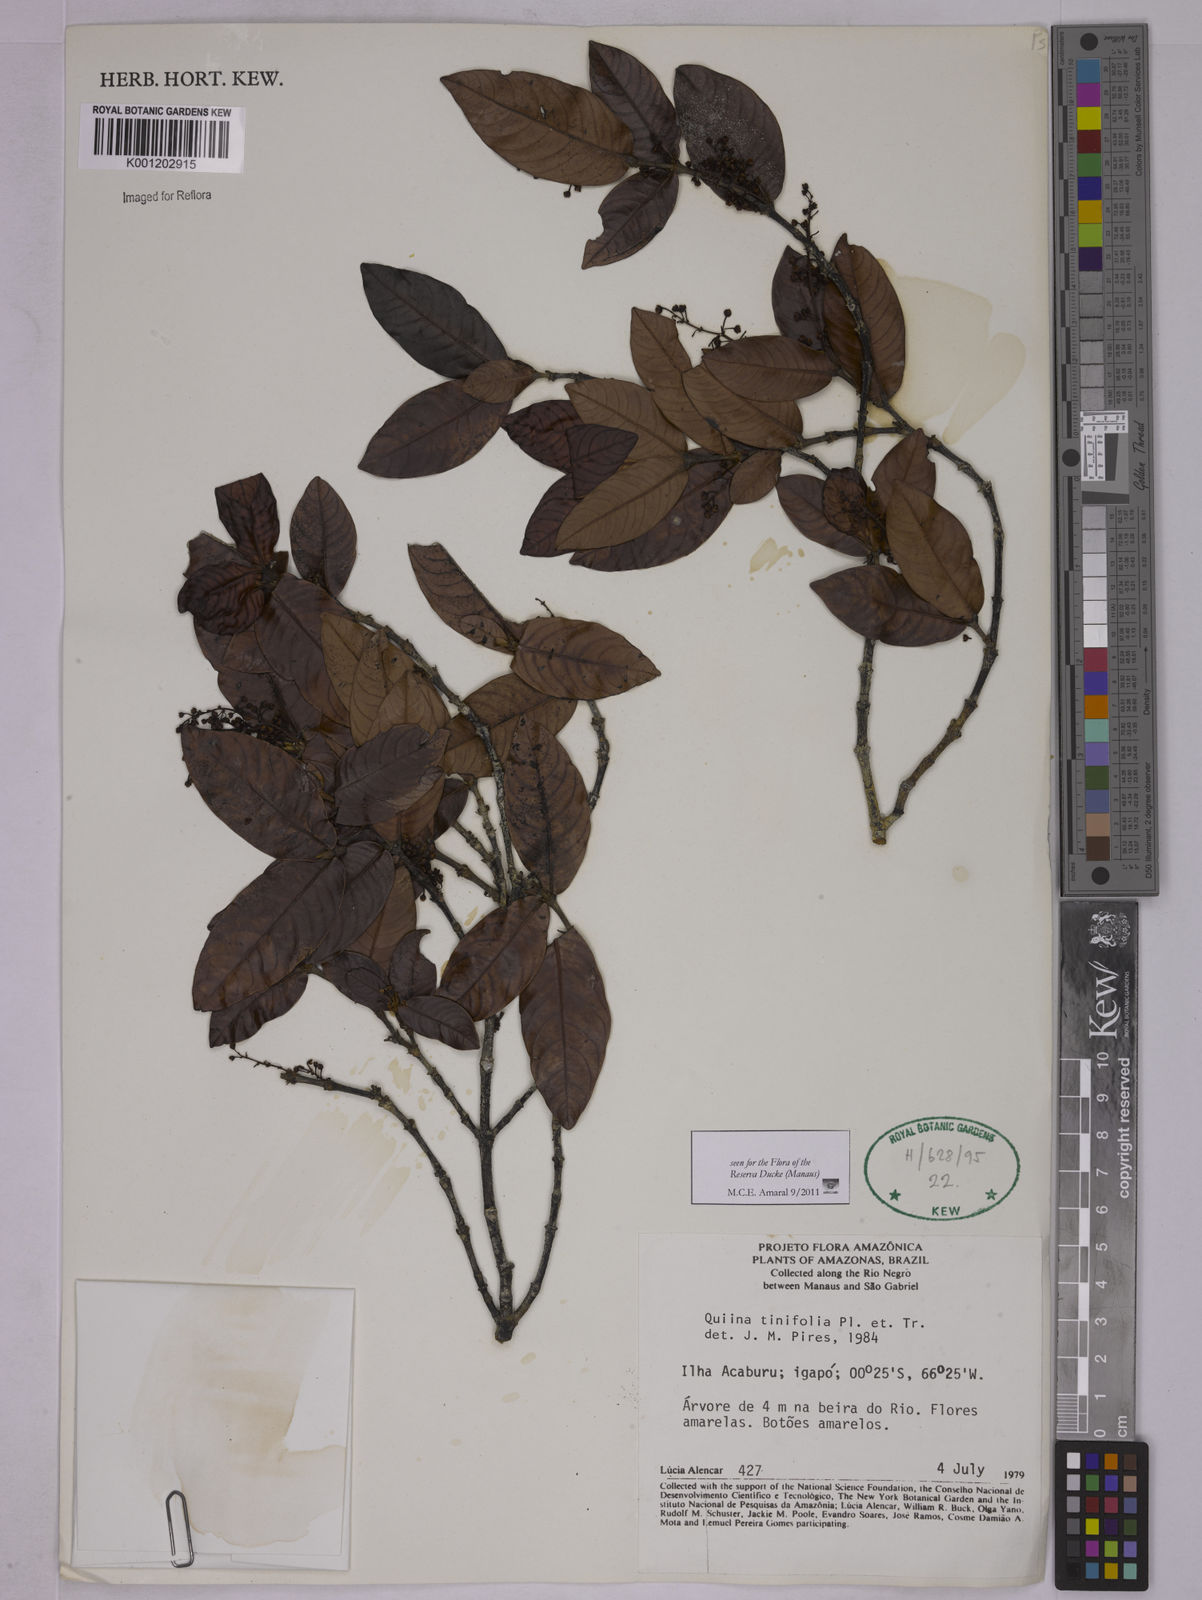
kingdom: Plantae
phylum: Tracheophyta
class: Magnoliopsida
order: Malpighiales
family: Quiinaceae
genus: Quiina
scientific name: Quiina tinifolia
